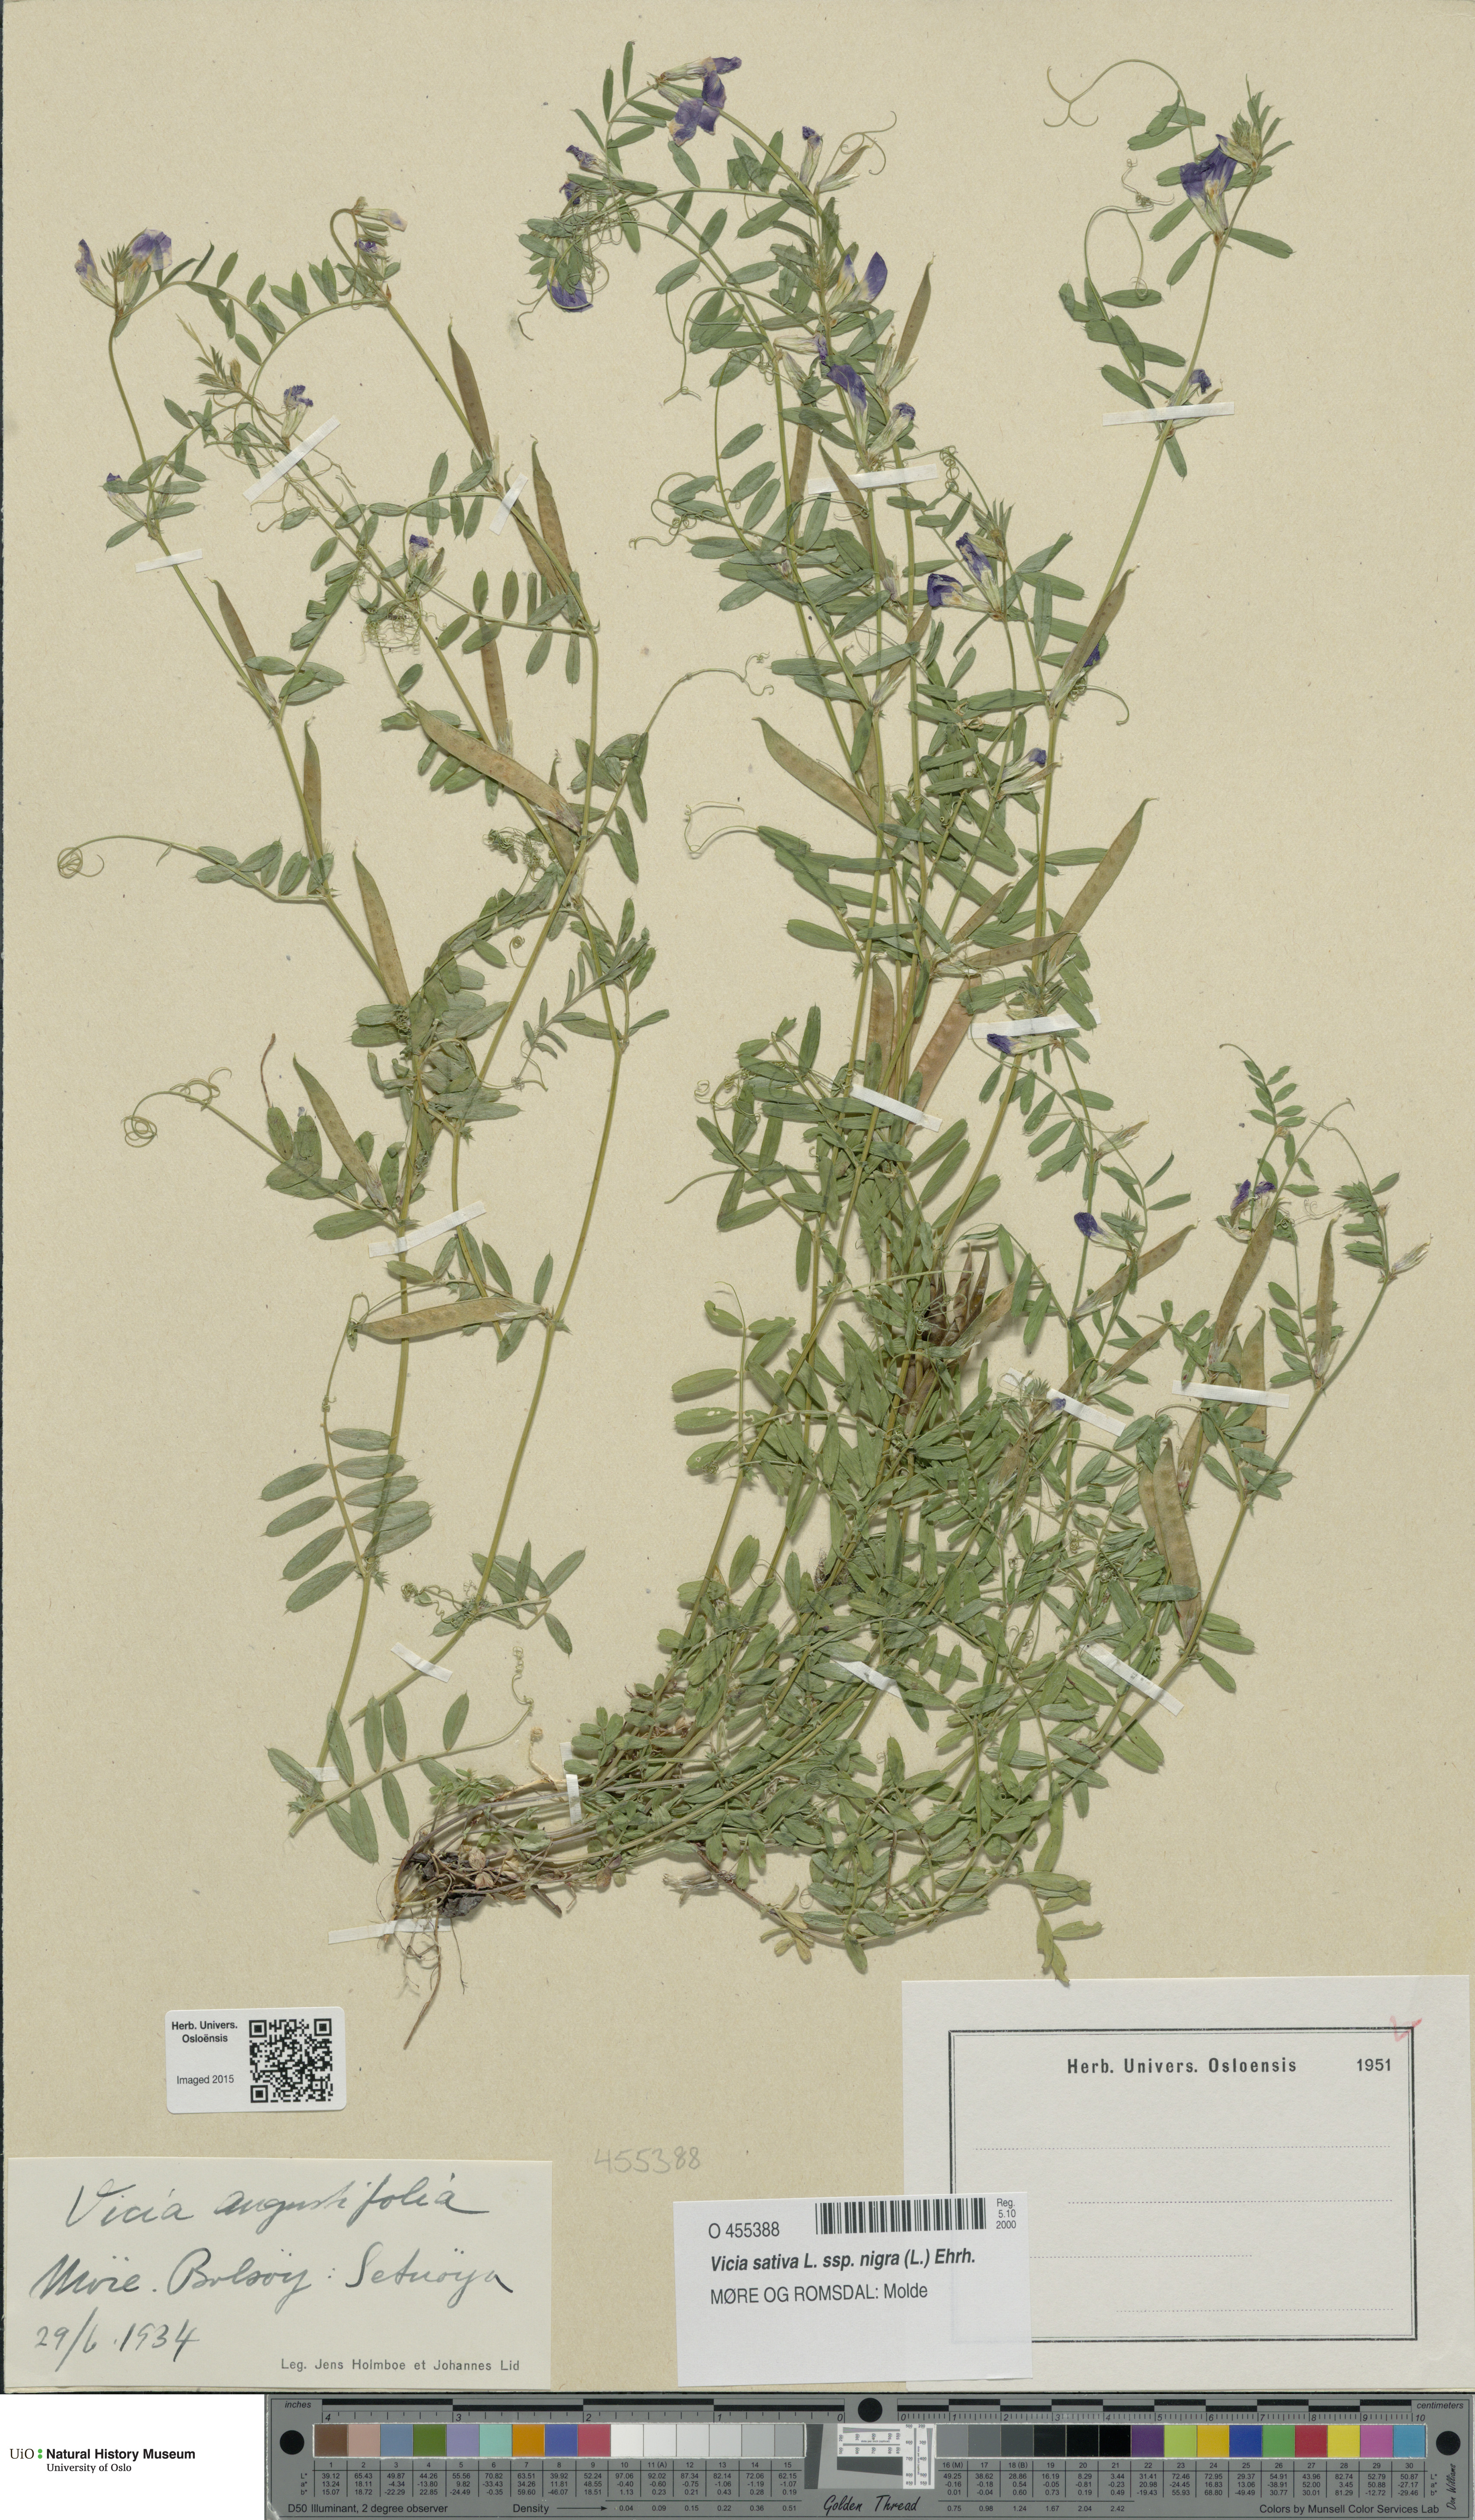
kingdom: Plantae
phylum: Tracheophyta
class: Magnoliopsida
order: Fabales
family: Fabaceae
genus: Vicia
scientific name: Vicia sativa
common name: Garden vetch
